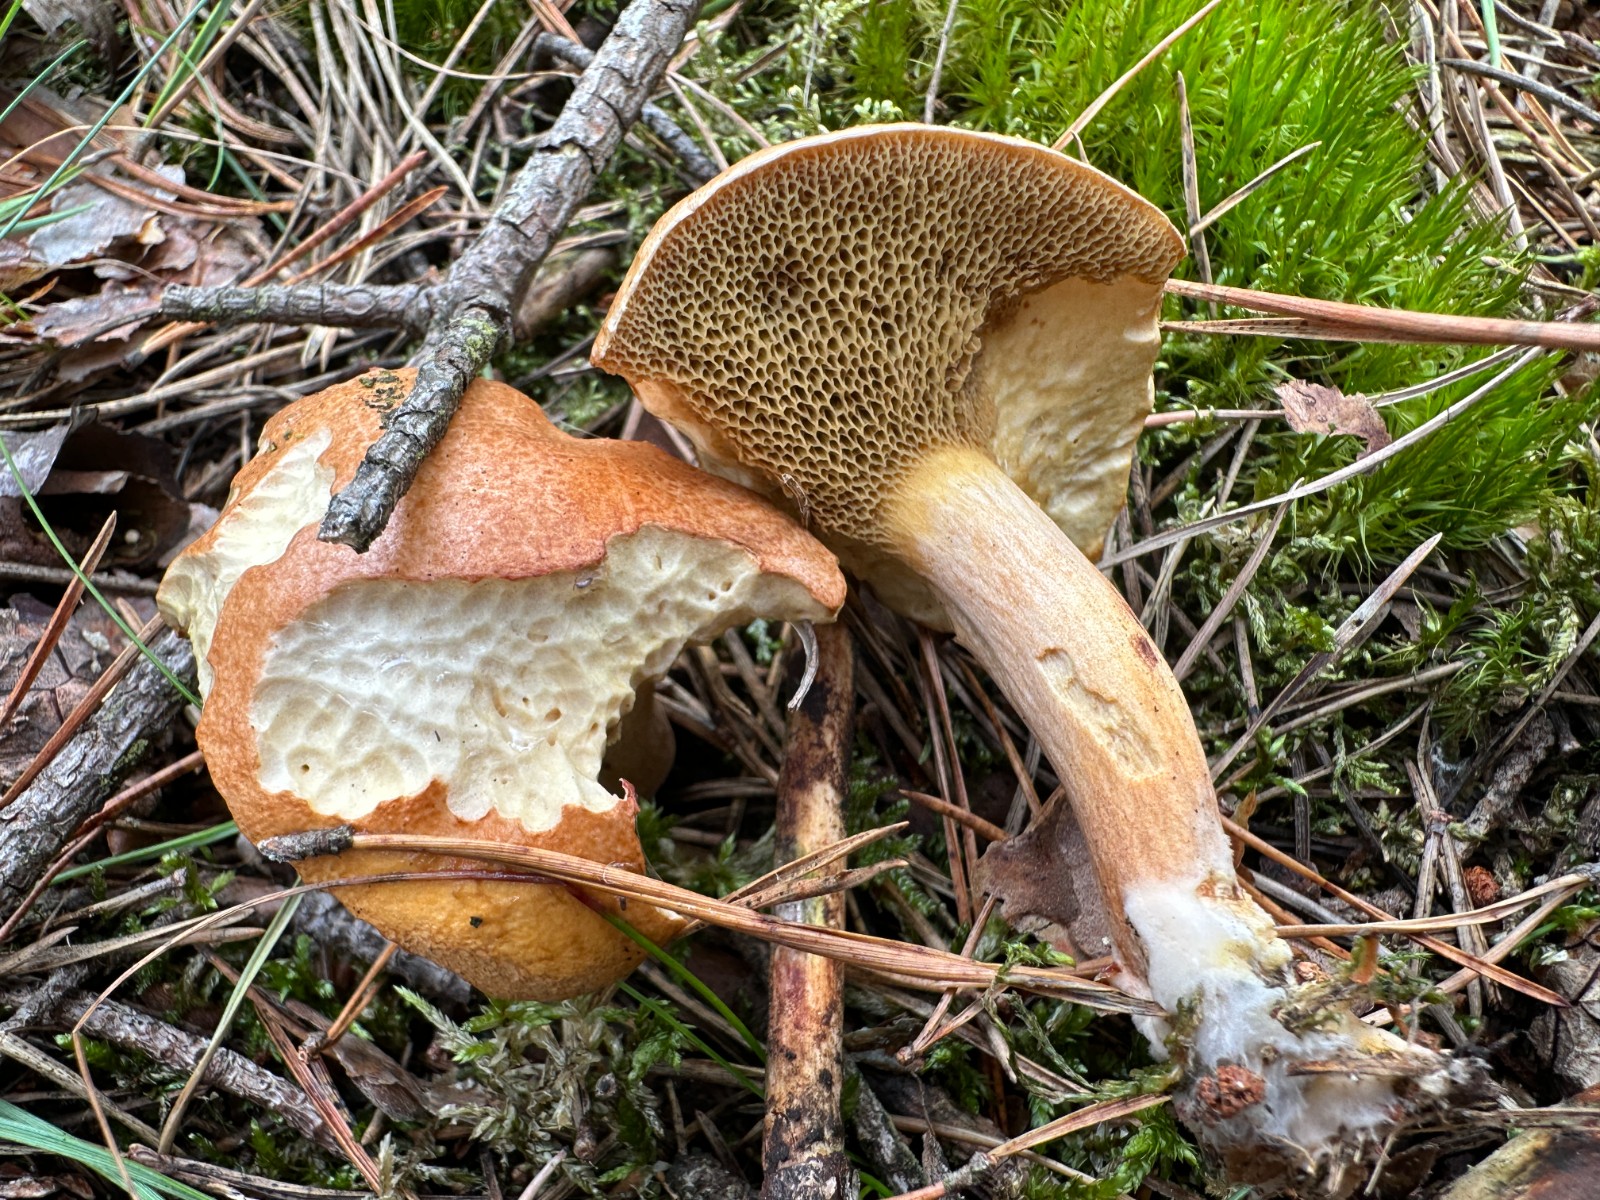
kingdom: Fungi
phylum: Basidiomycota
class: Agaricomycetes
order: Boletales
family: Suillaceae
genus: Suillus
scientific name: Suillus bovinus
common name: grovporet slimrørhat
